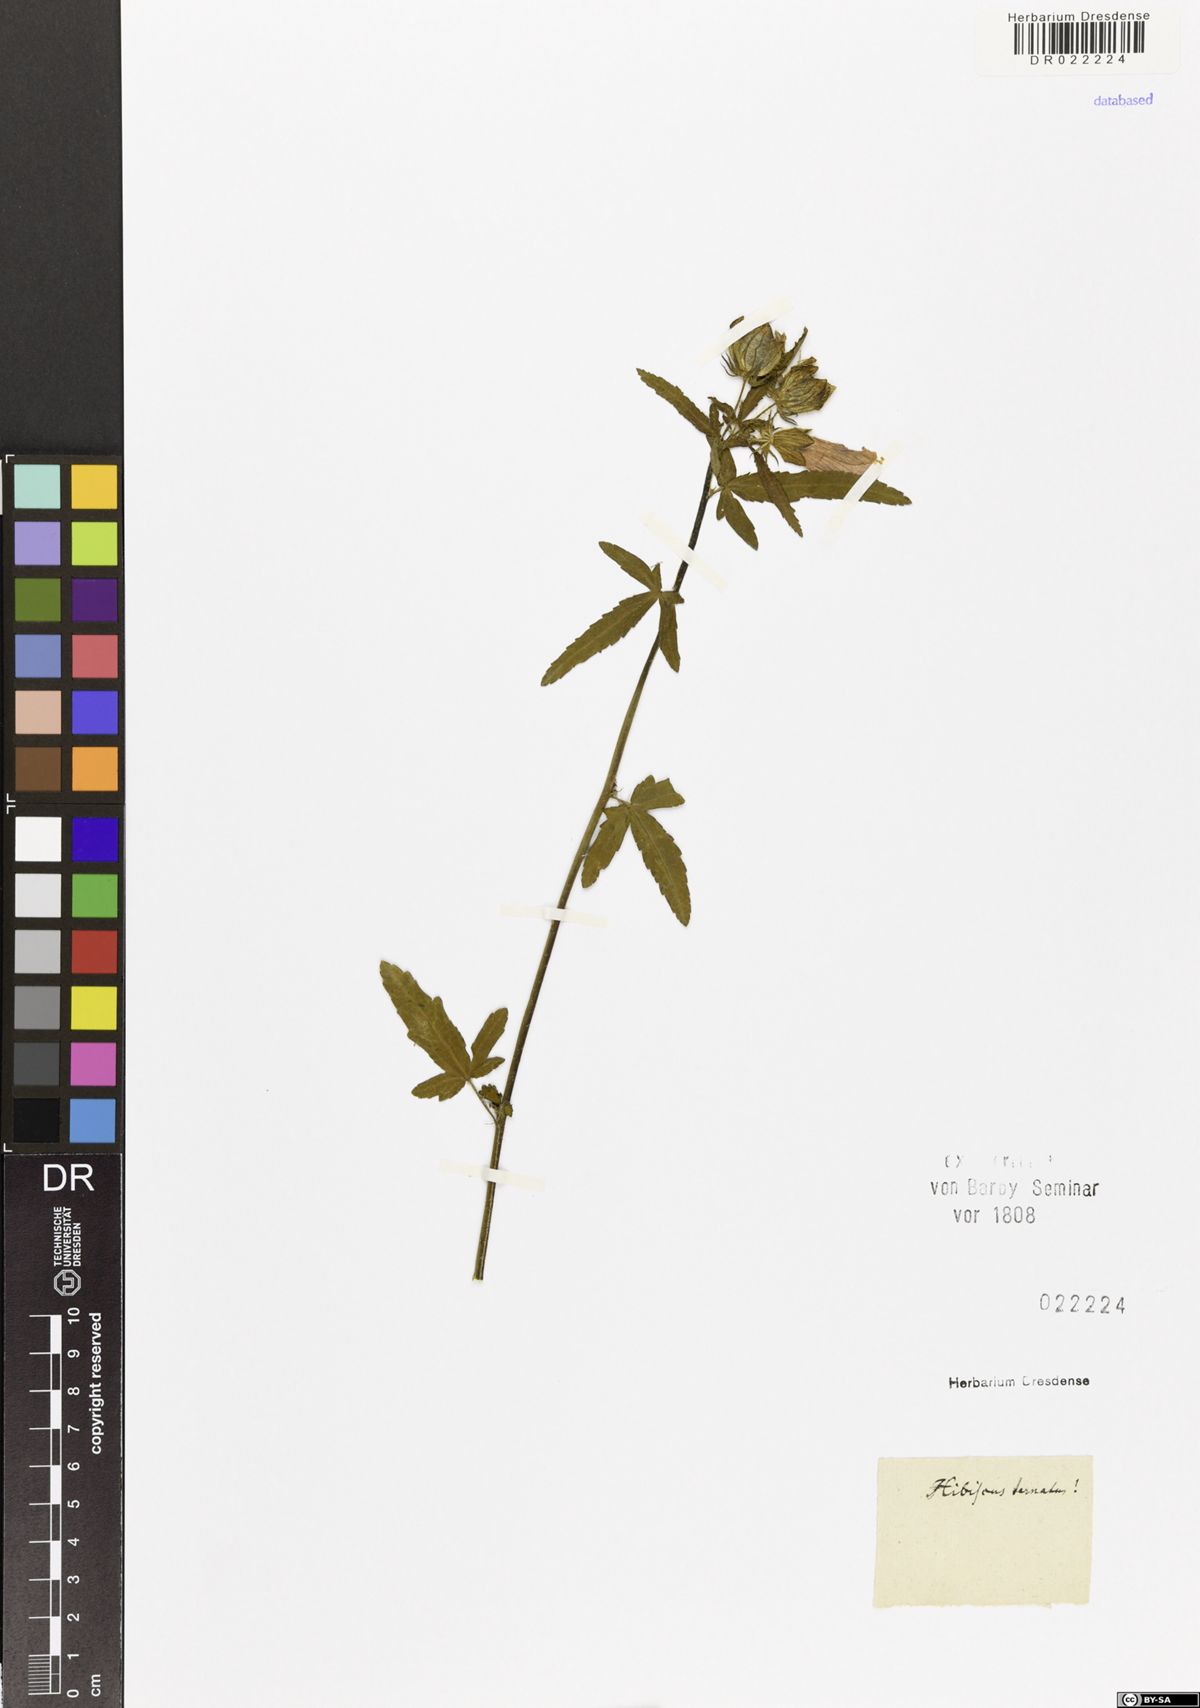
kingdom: Plantae
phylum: Tracheophyta
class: Magnoliopsida
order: Malvales
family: Malvaceae
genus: Hibiscus
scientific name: Hibiscus trionum
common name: Bladder ketmia
